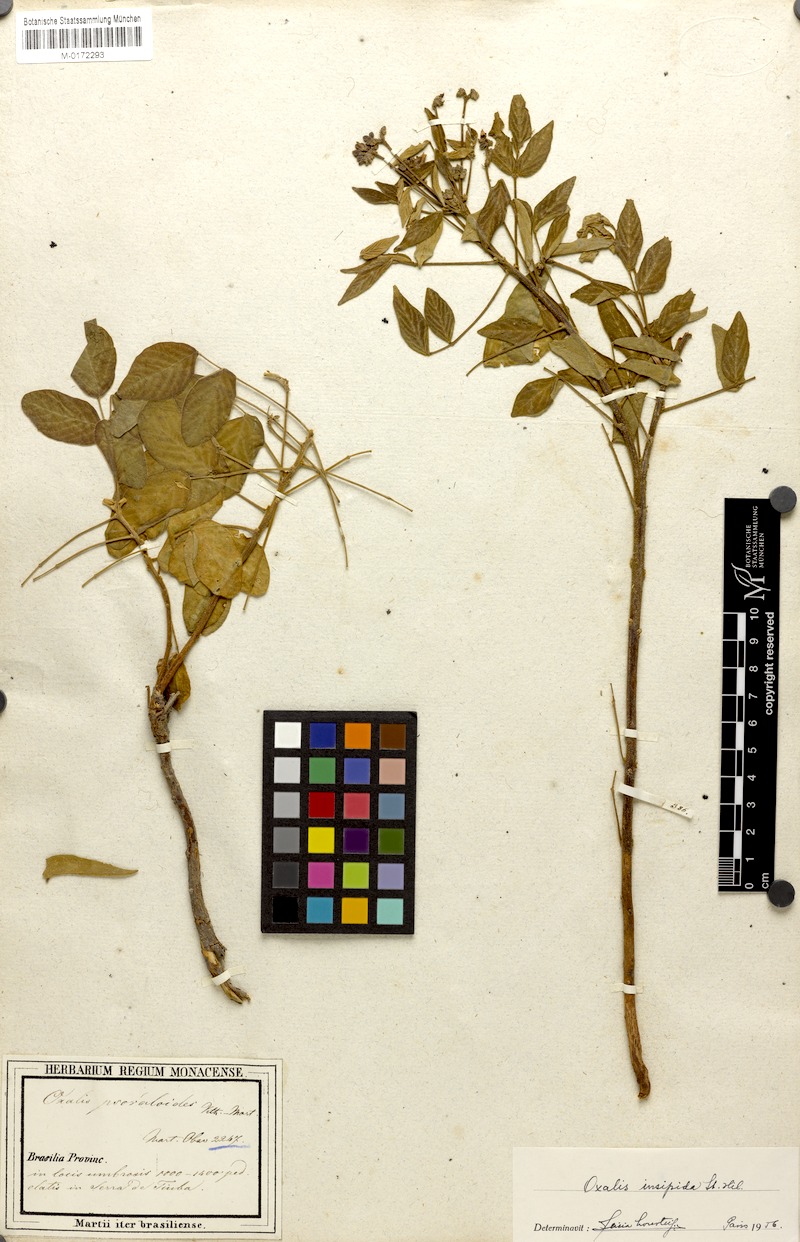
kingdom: Plantae
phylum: Tracheophyta
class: Magnoliopsida
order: Oxalidales
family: Oxalidaceae
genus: Oxalis
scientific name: Oxalis psoraleoides
